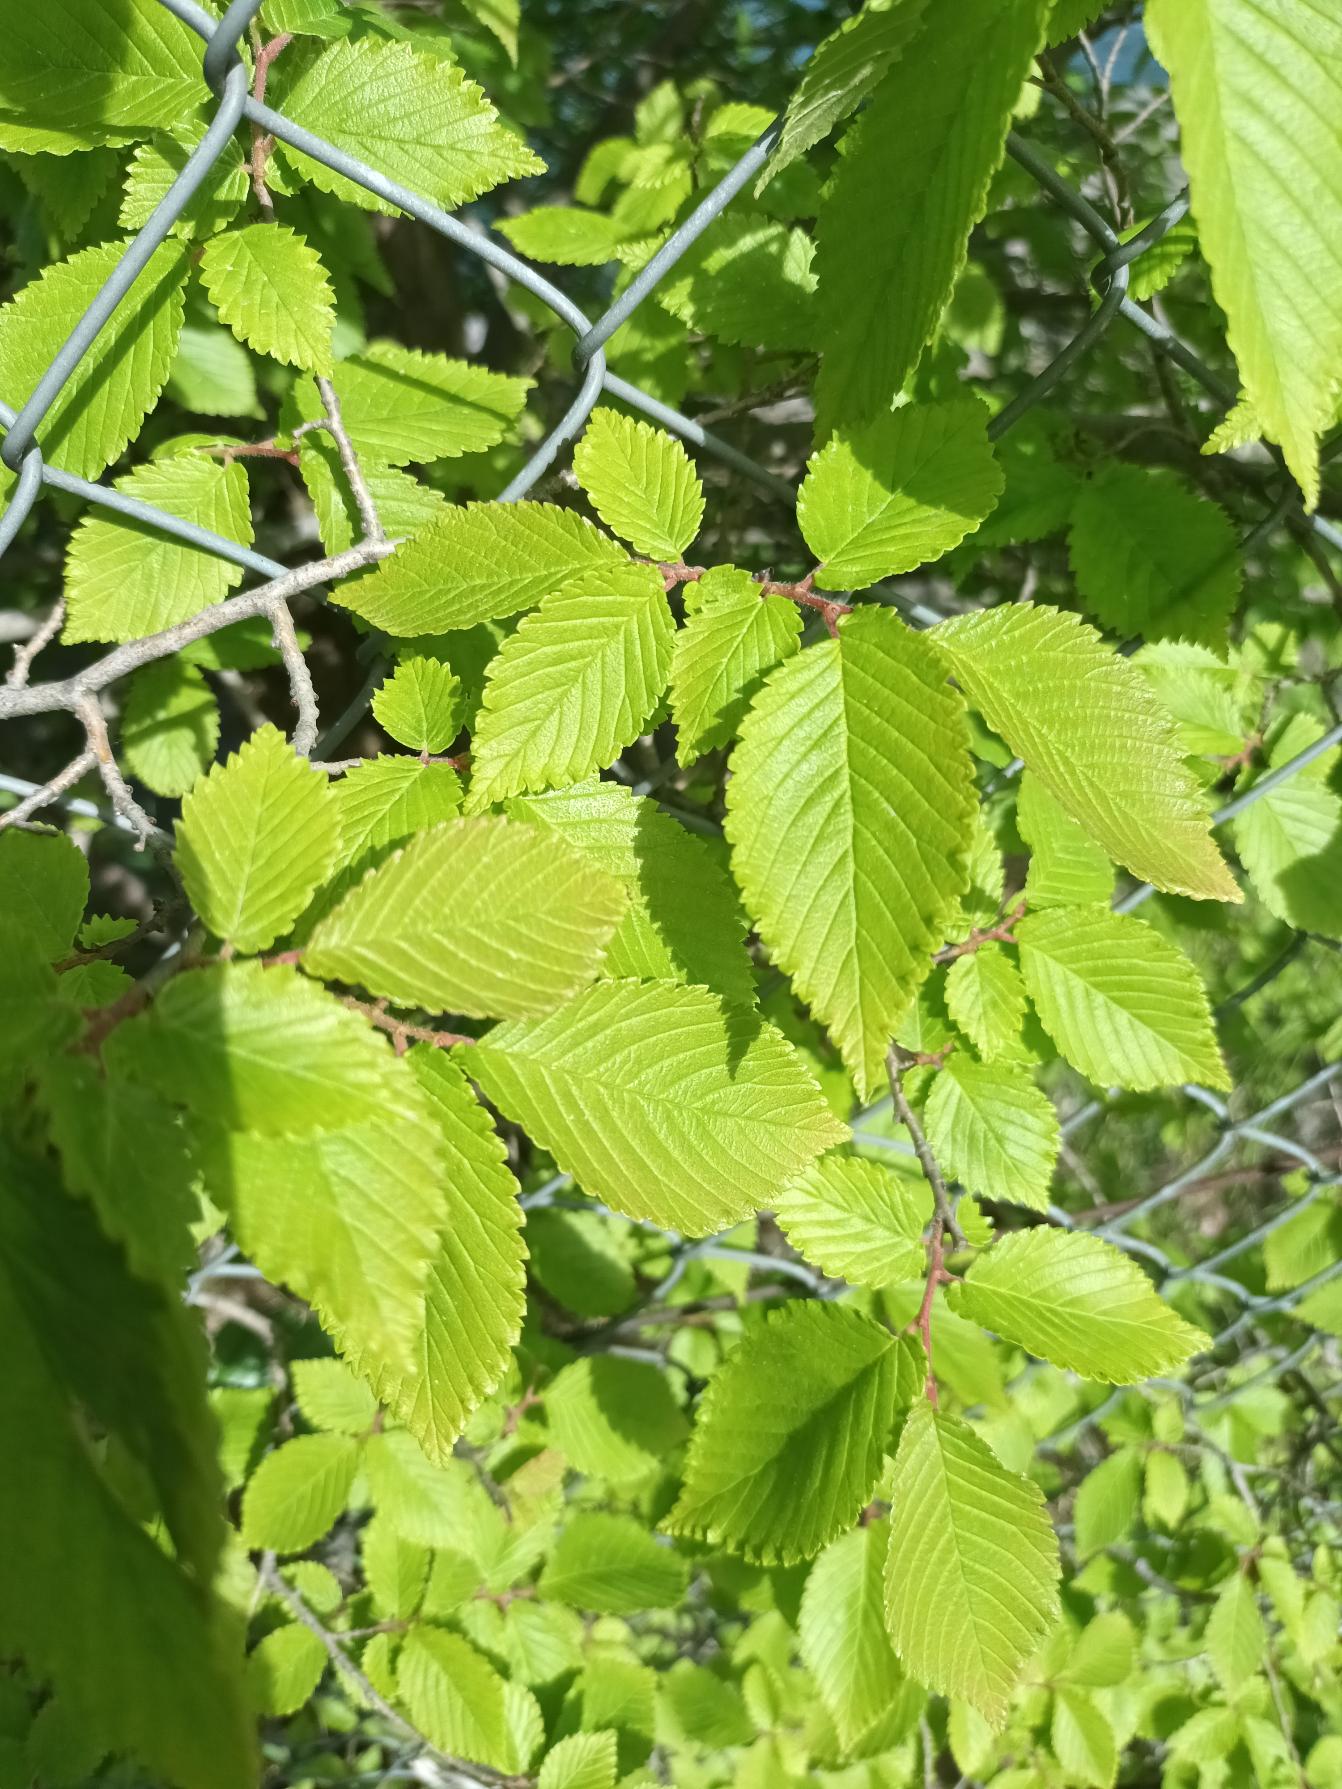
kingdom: Plantae
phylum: Tracheophyta
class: Magnoliopsida
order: Rosales
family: Ulmaceae
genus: Ulmus
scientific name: Ulmus minor
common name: Småbladet elm
